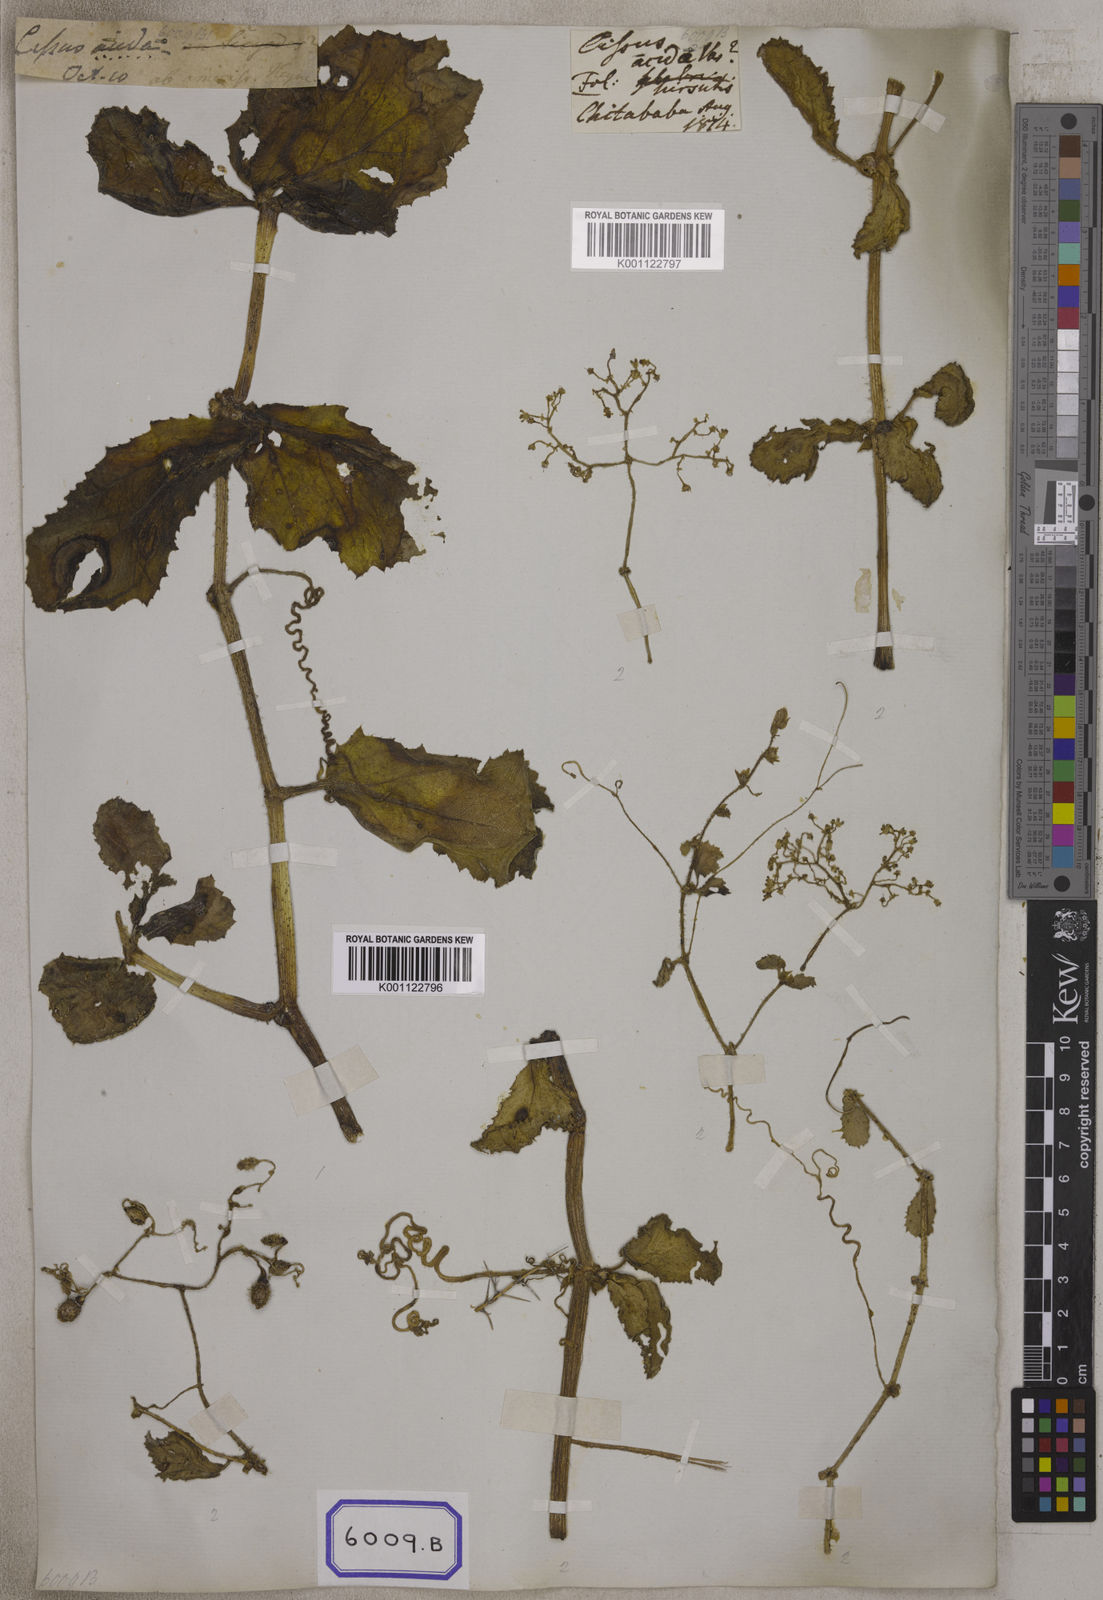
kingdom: Plantae
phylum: Tracheophyta
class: Magnoliopsida
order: Vitales
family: Vitaceae
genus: Vitis
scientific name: Vitis
